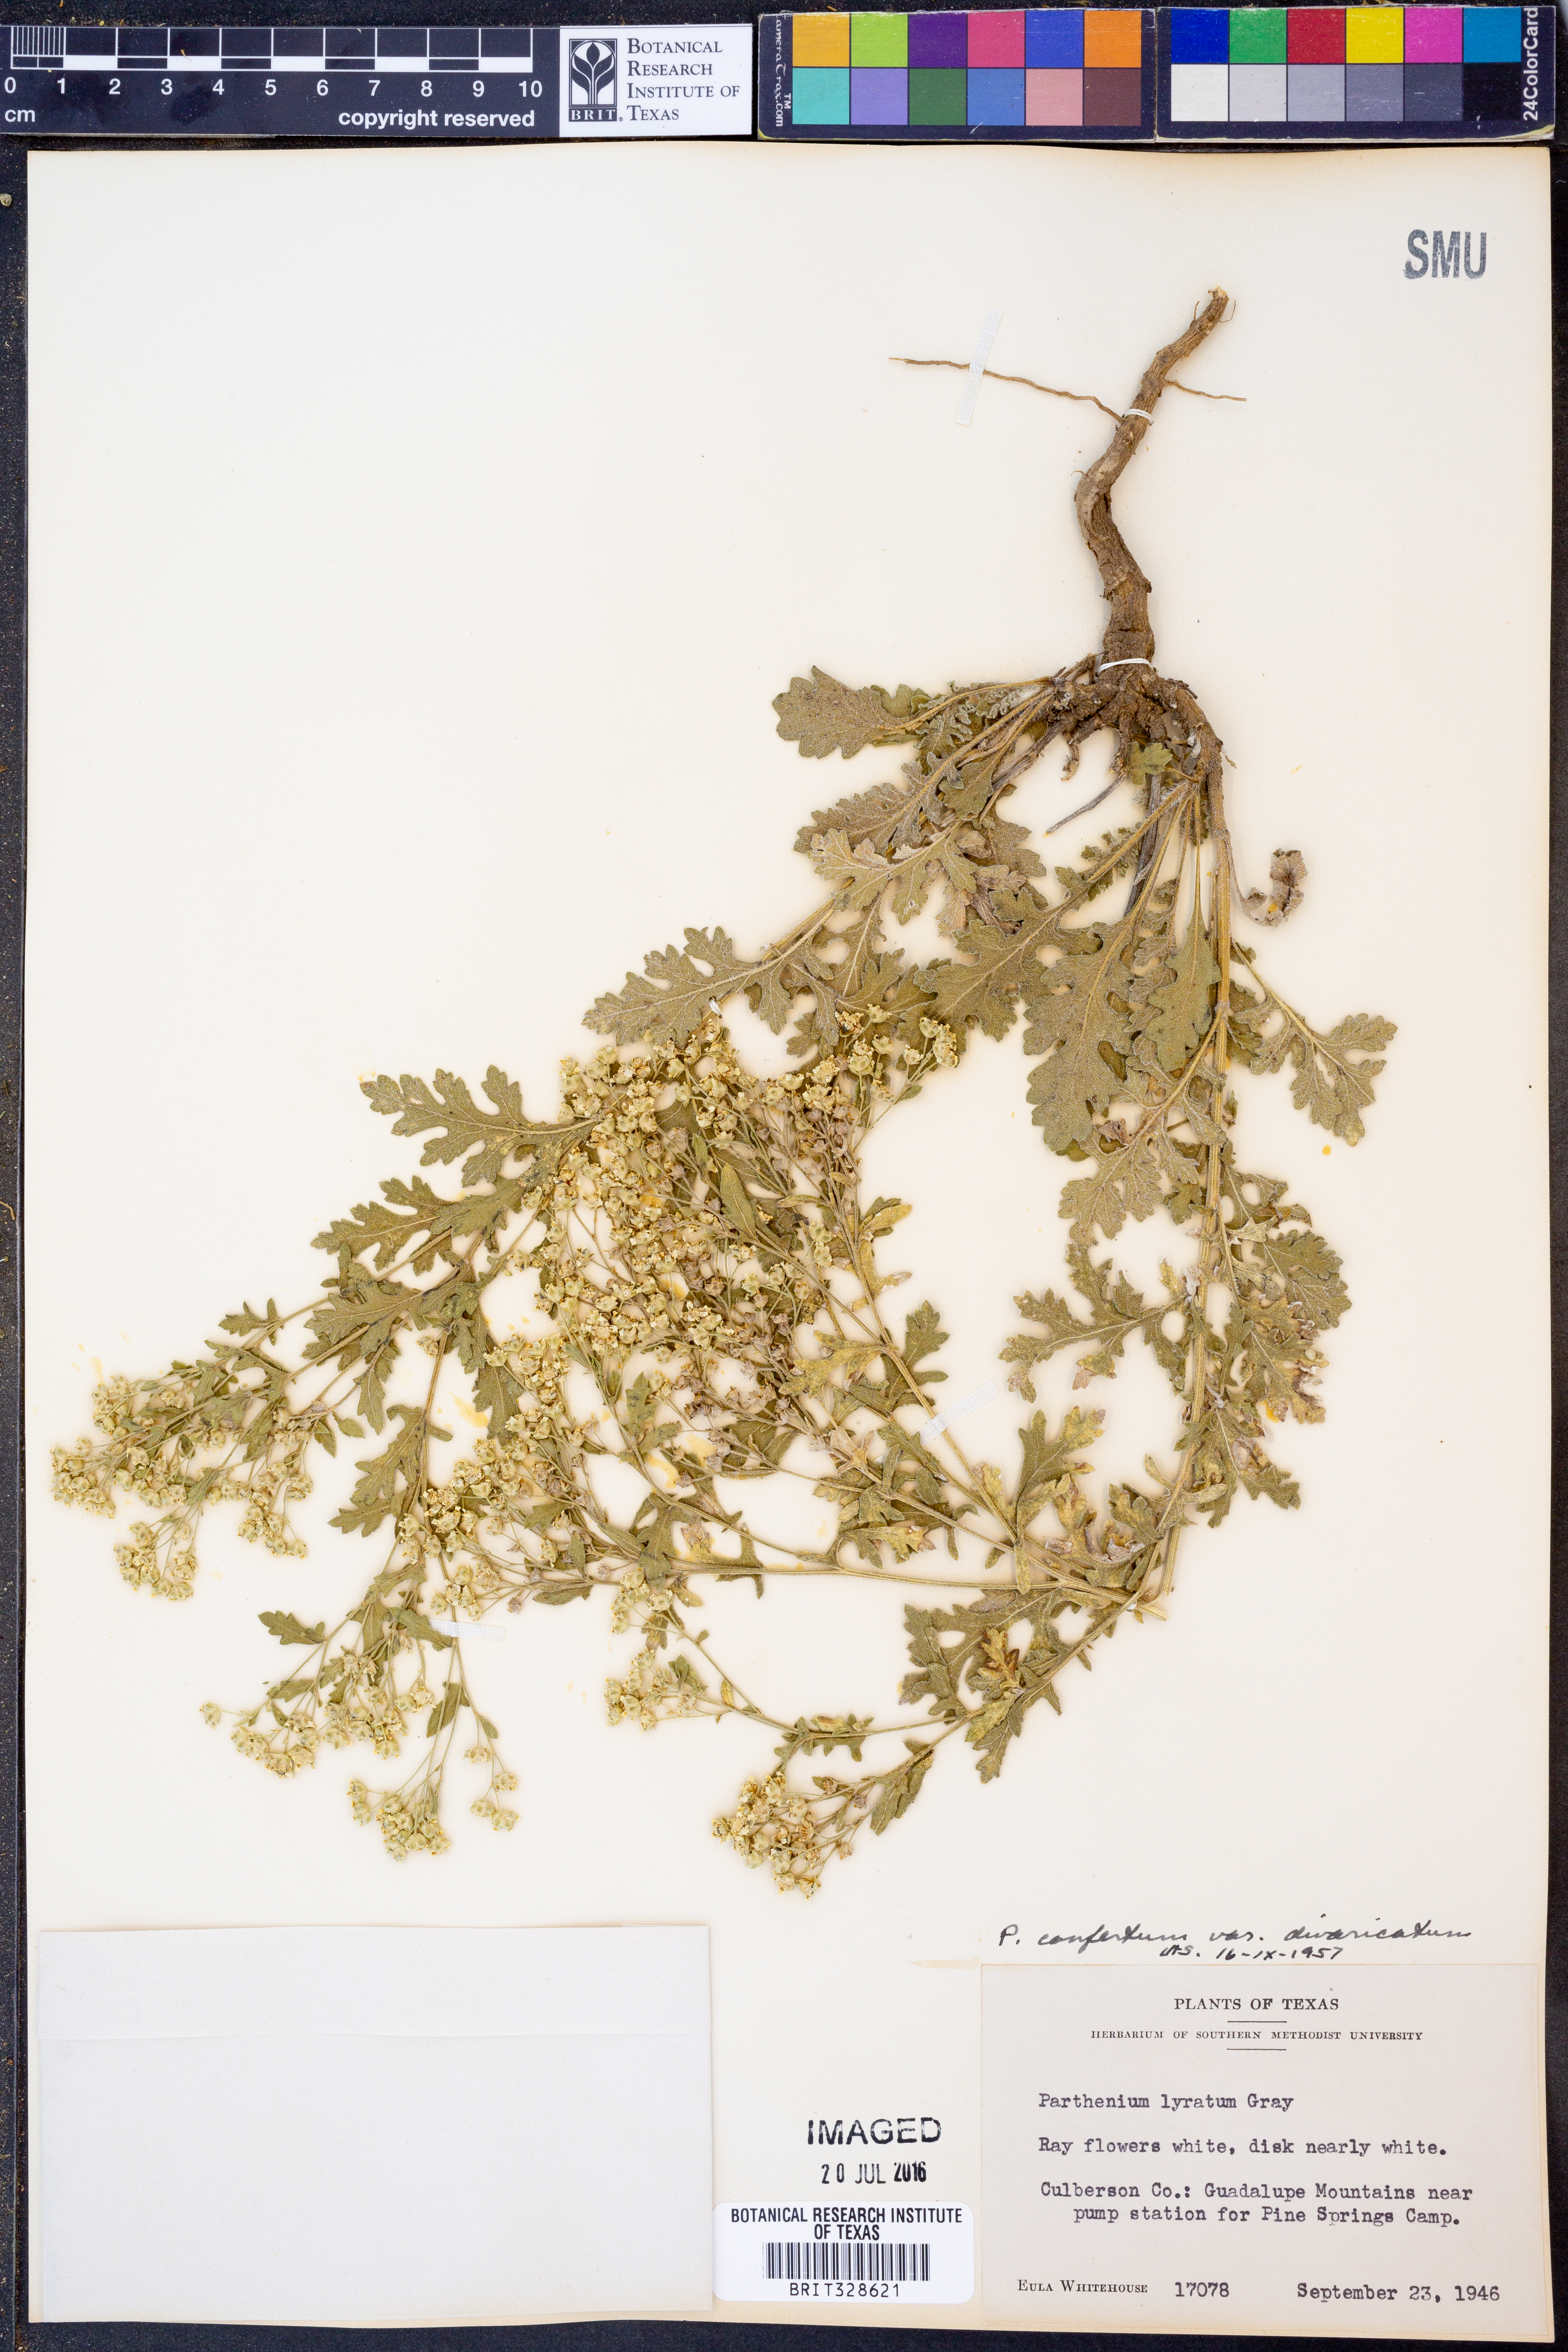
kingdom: Plantae
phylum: Tracheophyta
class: Magnoliopsida
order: Asterales
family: Asteraceae
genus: Parthenium
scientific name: Parthenium confertum
